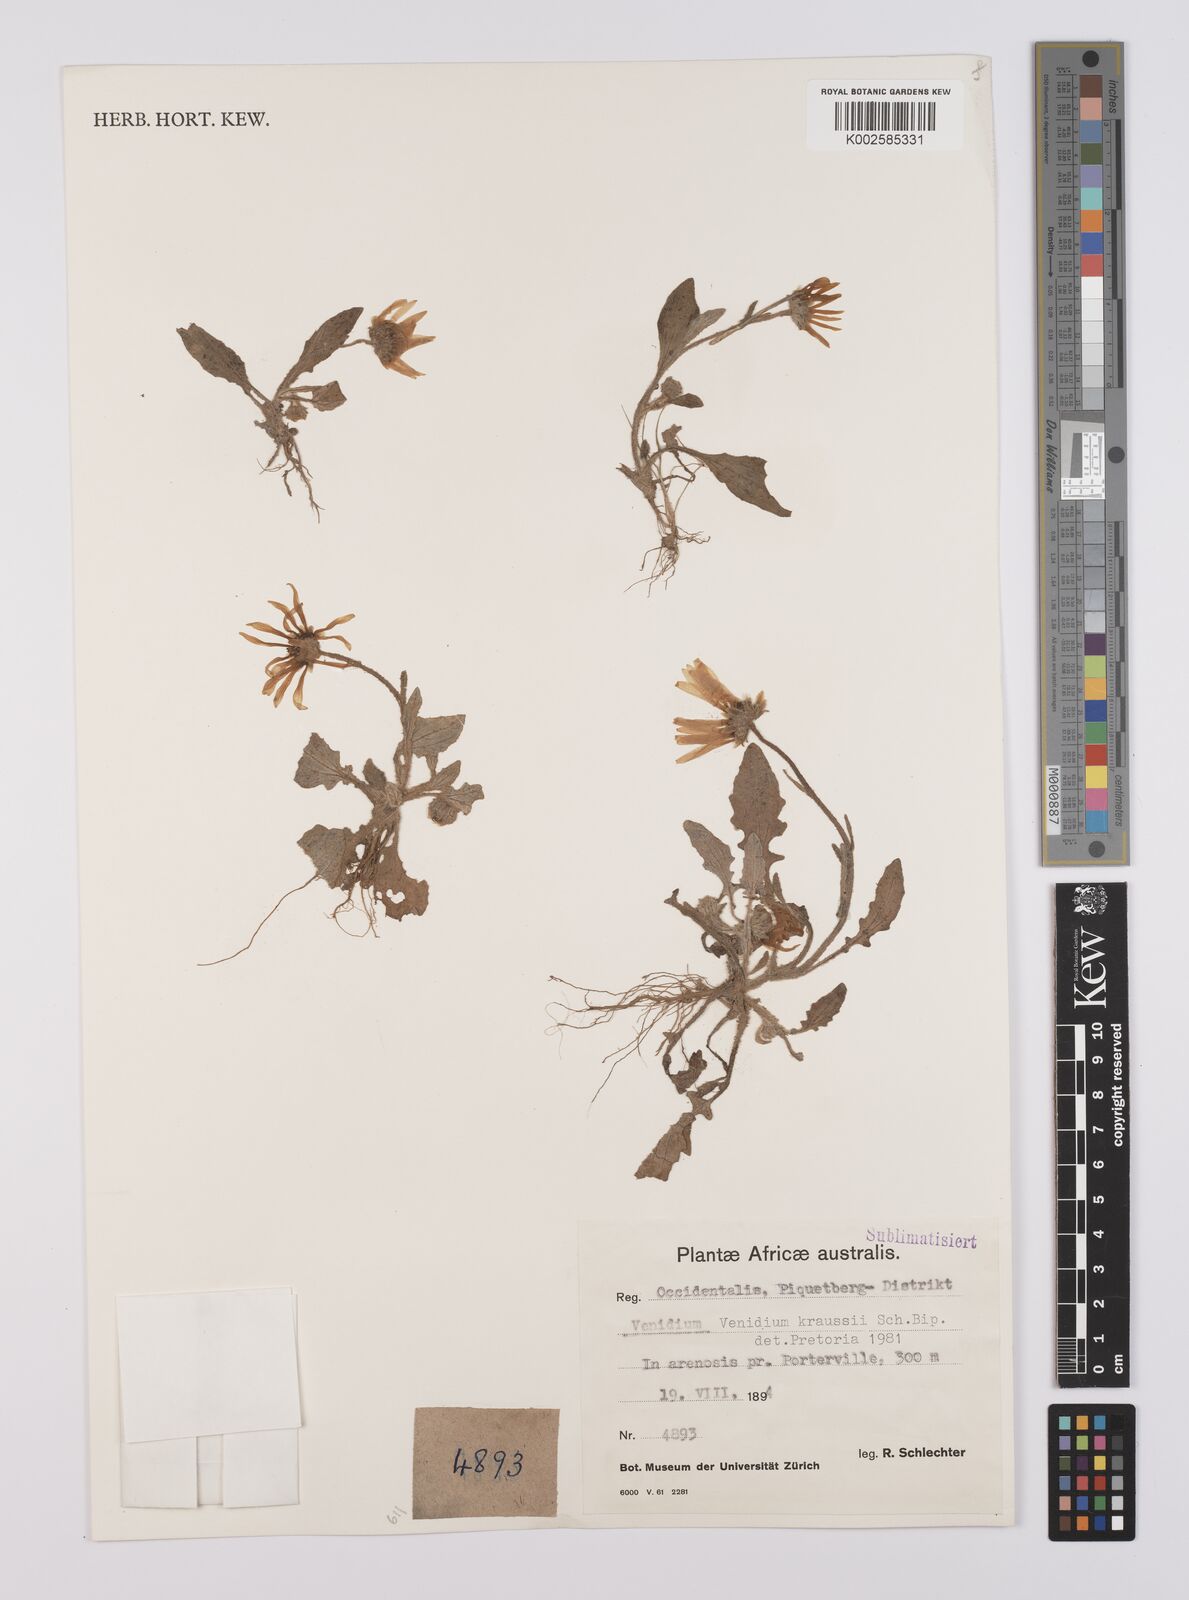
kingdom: Plantae
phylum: Tracheophyta
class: Magnoliopsida
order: Asterales
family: Asteraceae
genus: Arctotis
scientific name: Arctotis angustifolia
